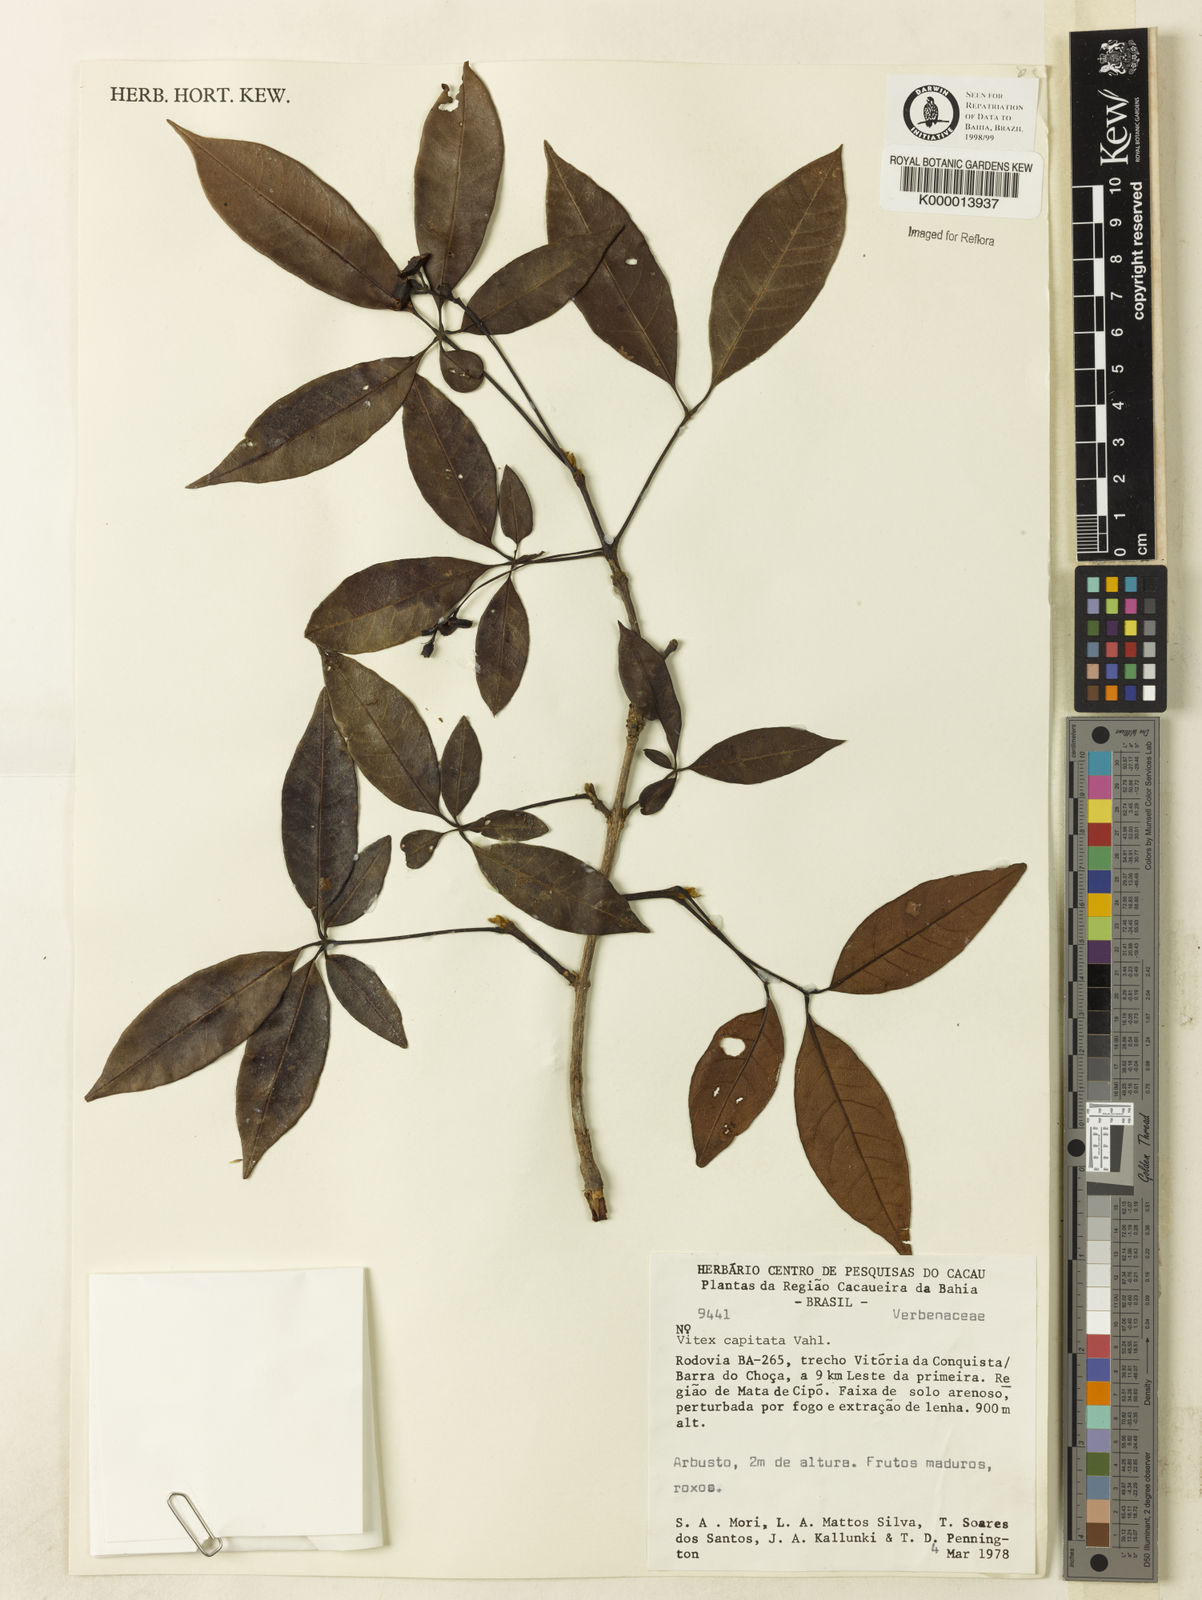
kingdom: Plantae
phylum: Tracheophyta
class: Magnoliopsida
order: Lamiales
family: Lamiaceae
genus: Vitex
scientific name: Vitex capitata
